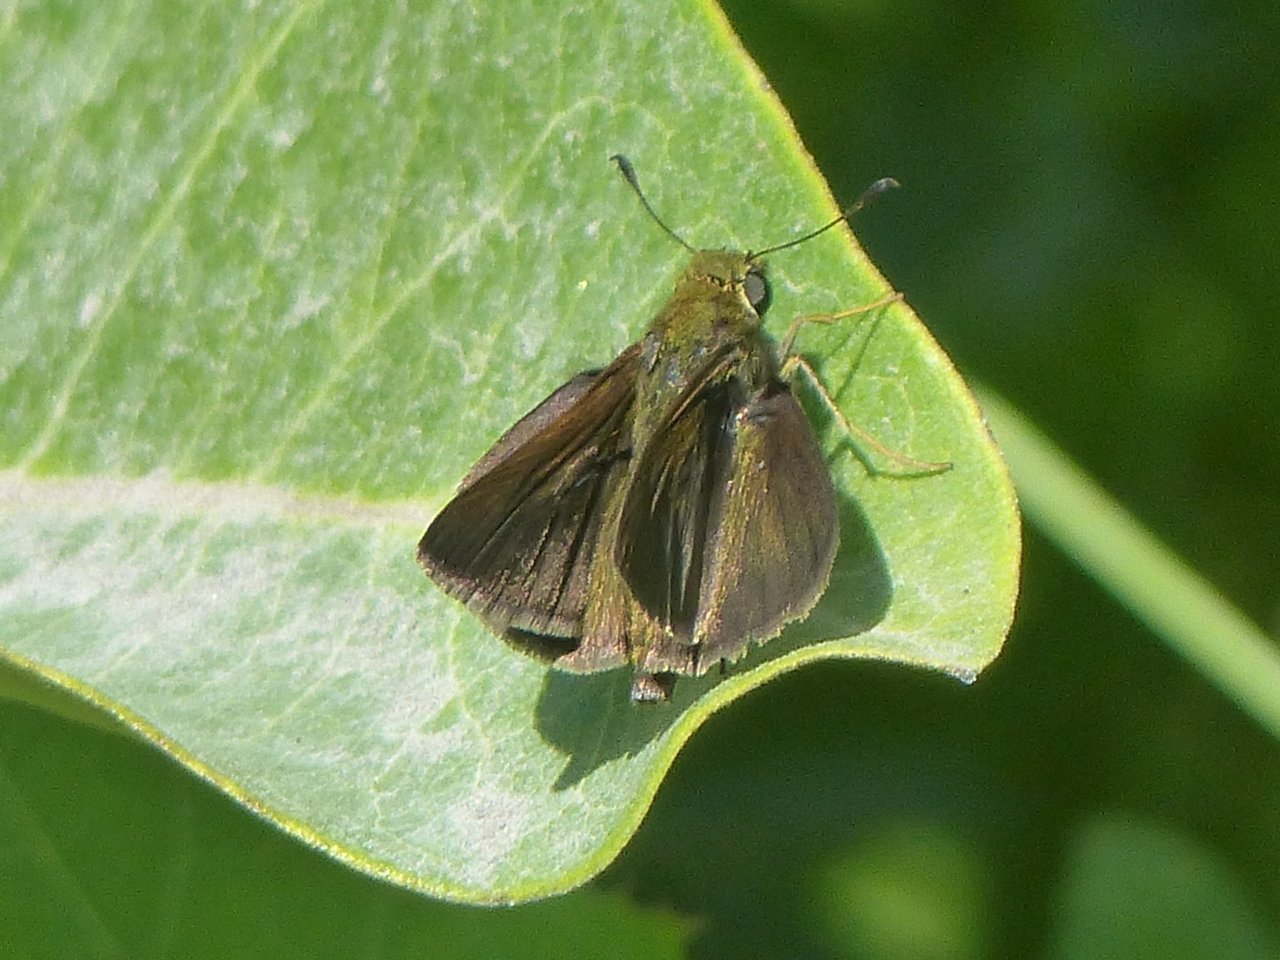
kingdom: Animalia
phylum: Arthropoda
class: Insecta
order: Lepidoptera
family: Hesperiidae
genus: Euphyes
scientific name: Euphyes vestris
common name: Dun Skipper
